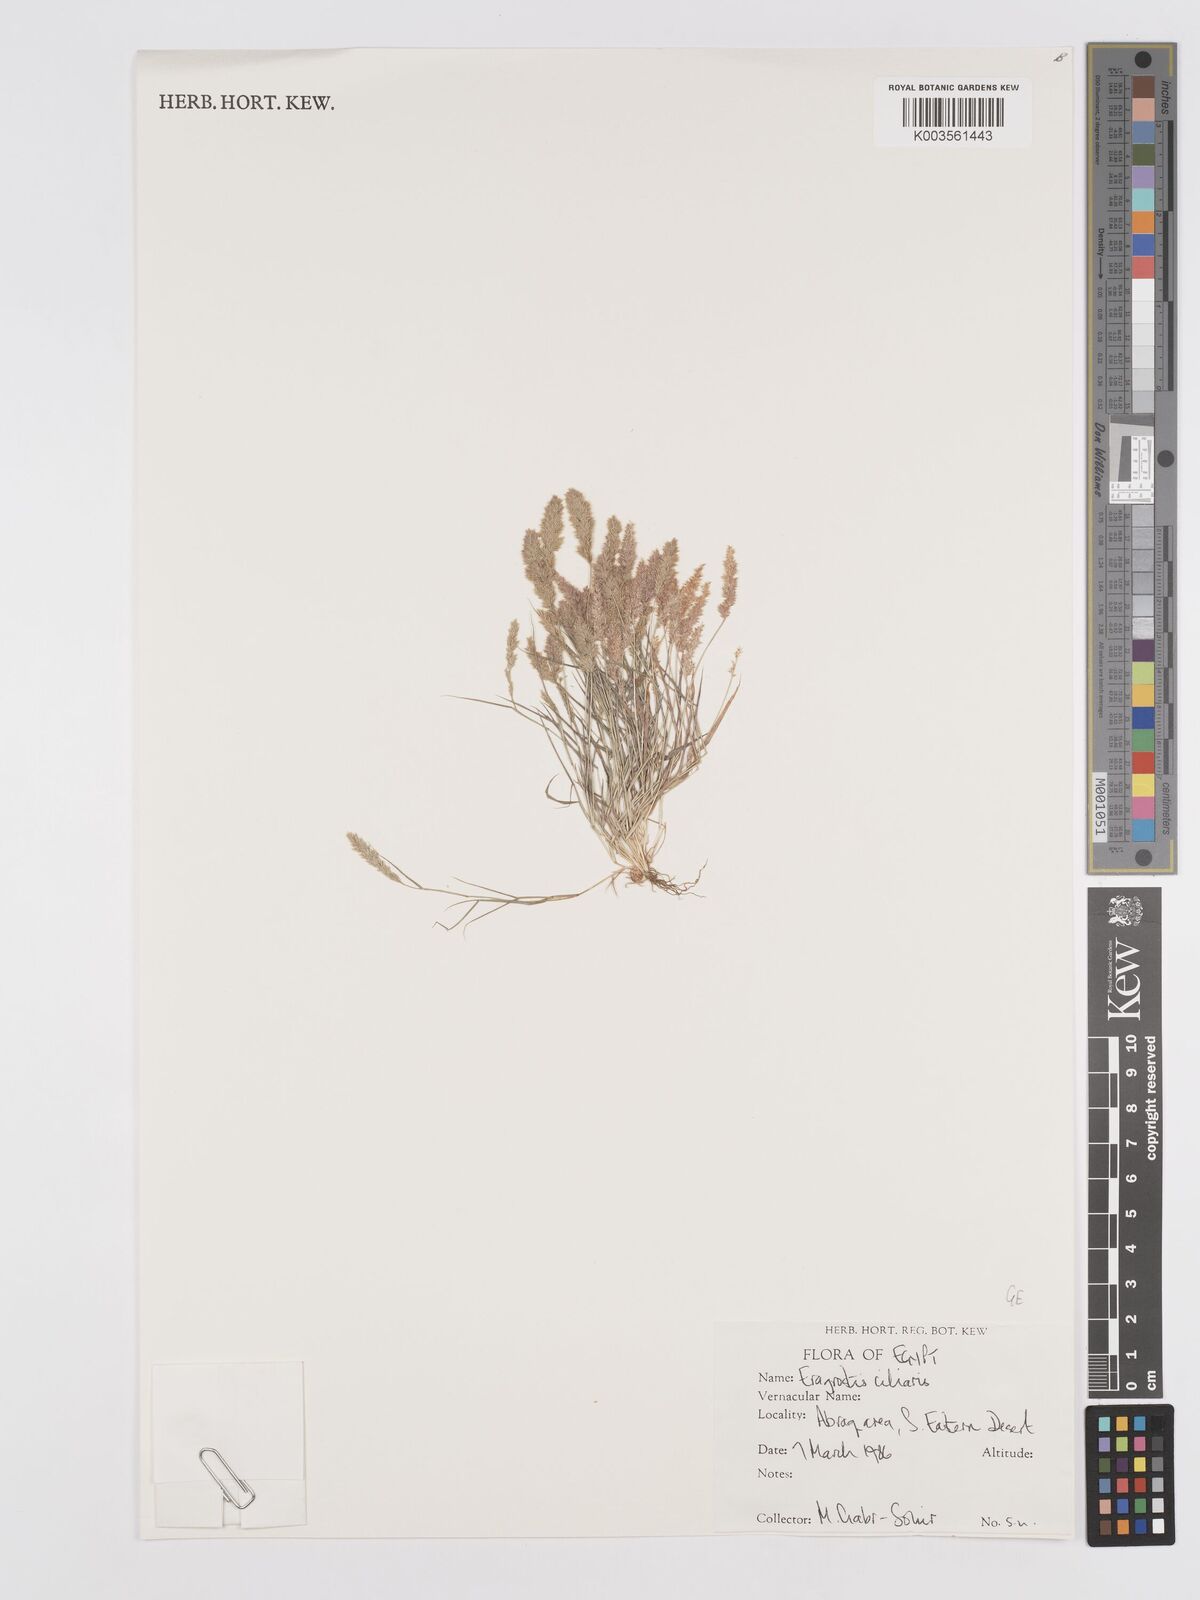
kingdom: Plantae
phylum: Tracheophyta
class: Liliopsida
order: Poales
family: Poaceae
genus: Eragrostis
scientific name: Eragrostis ciliaris
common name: Gophertail lovegrass
